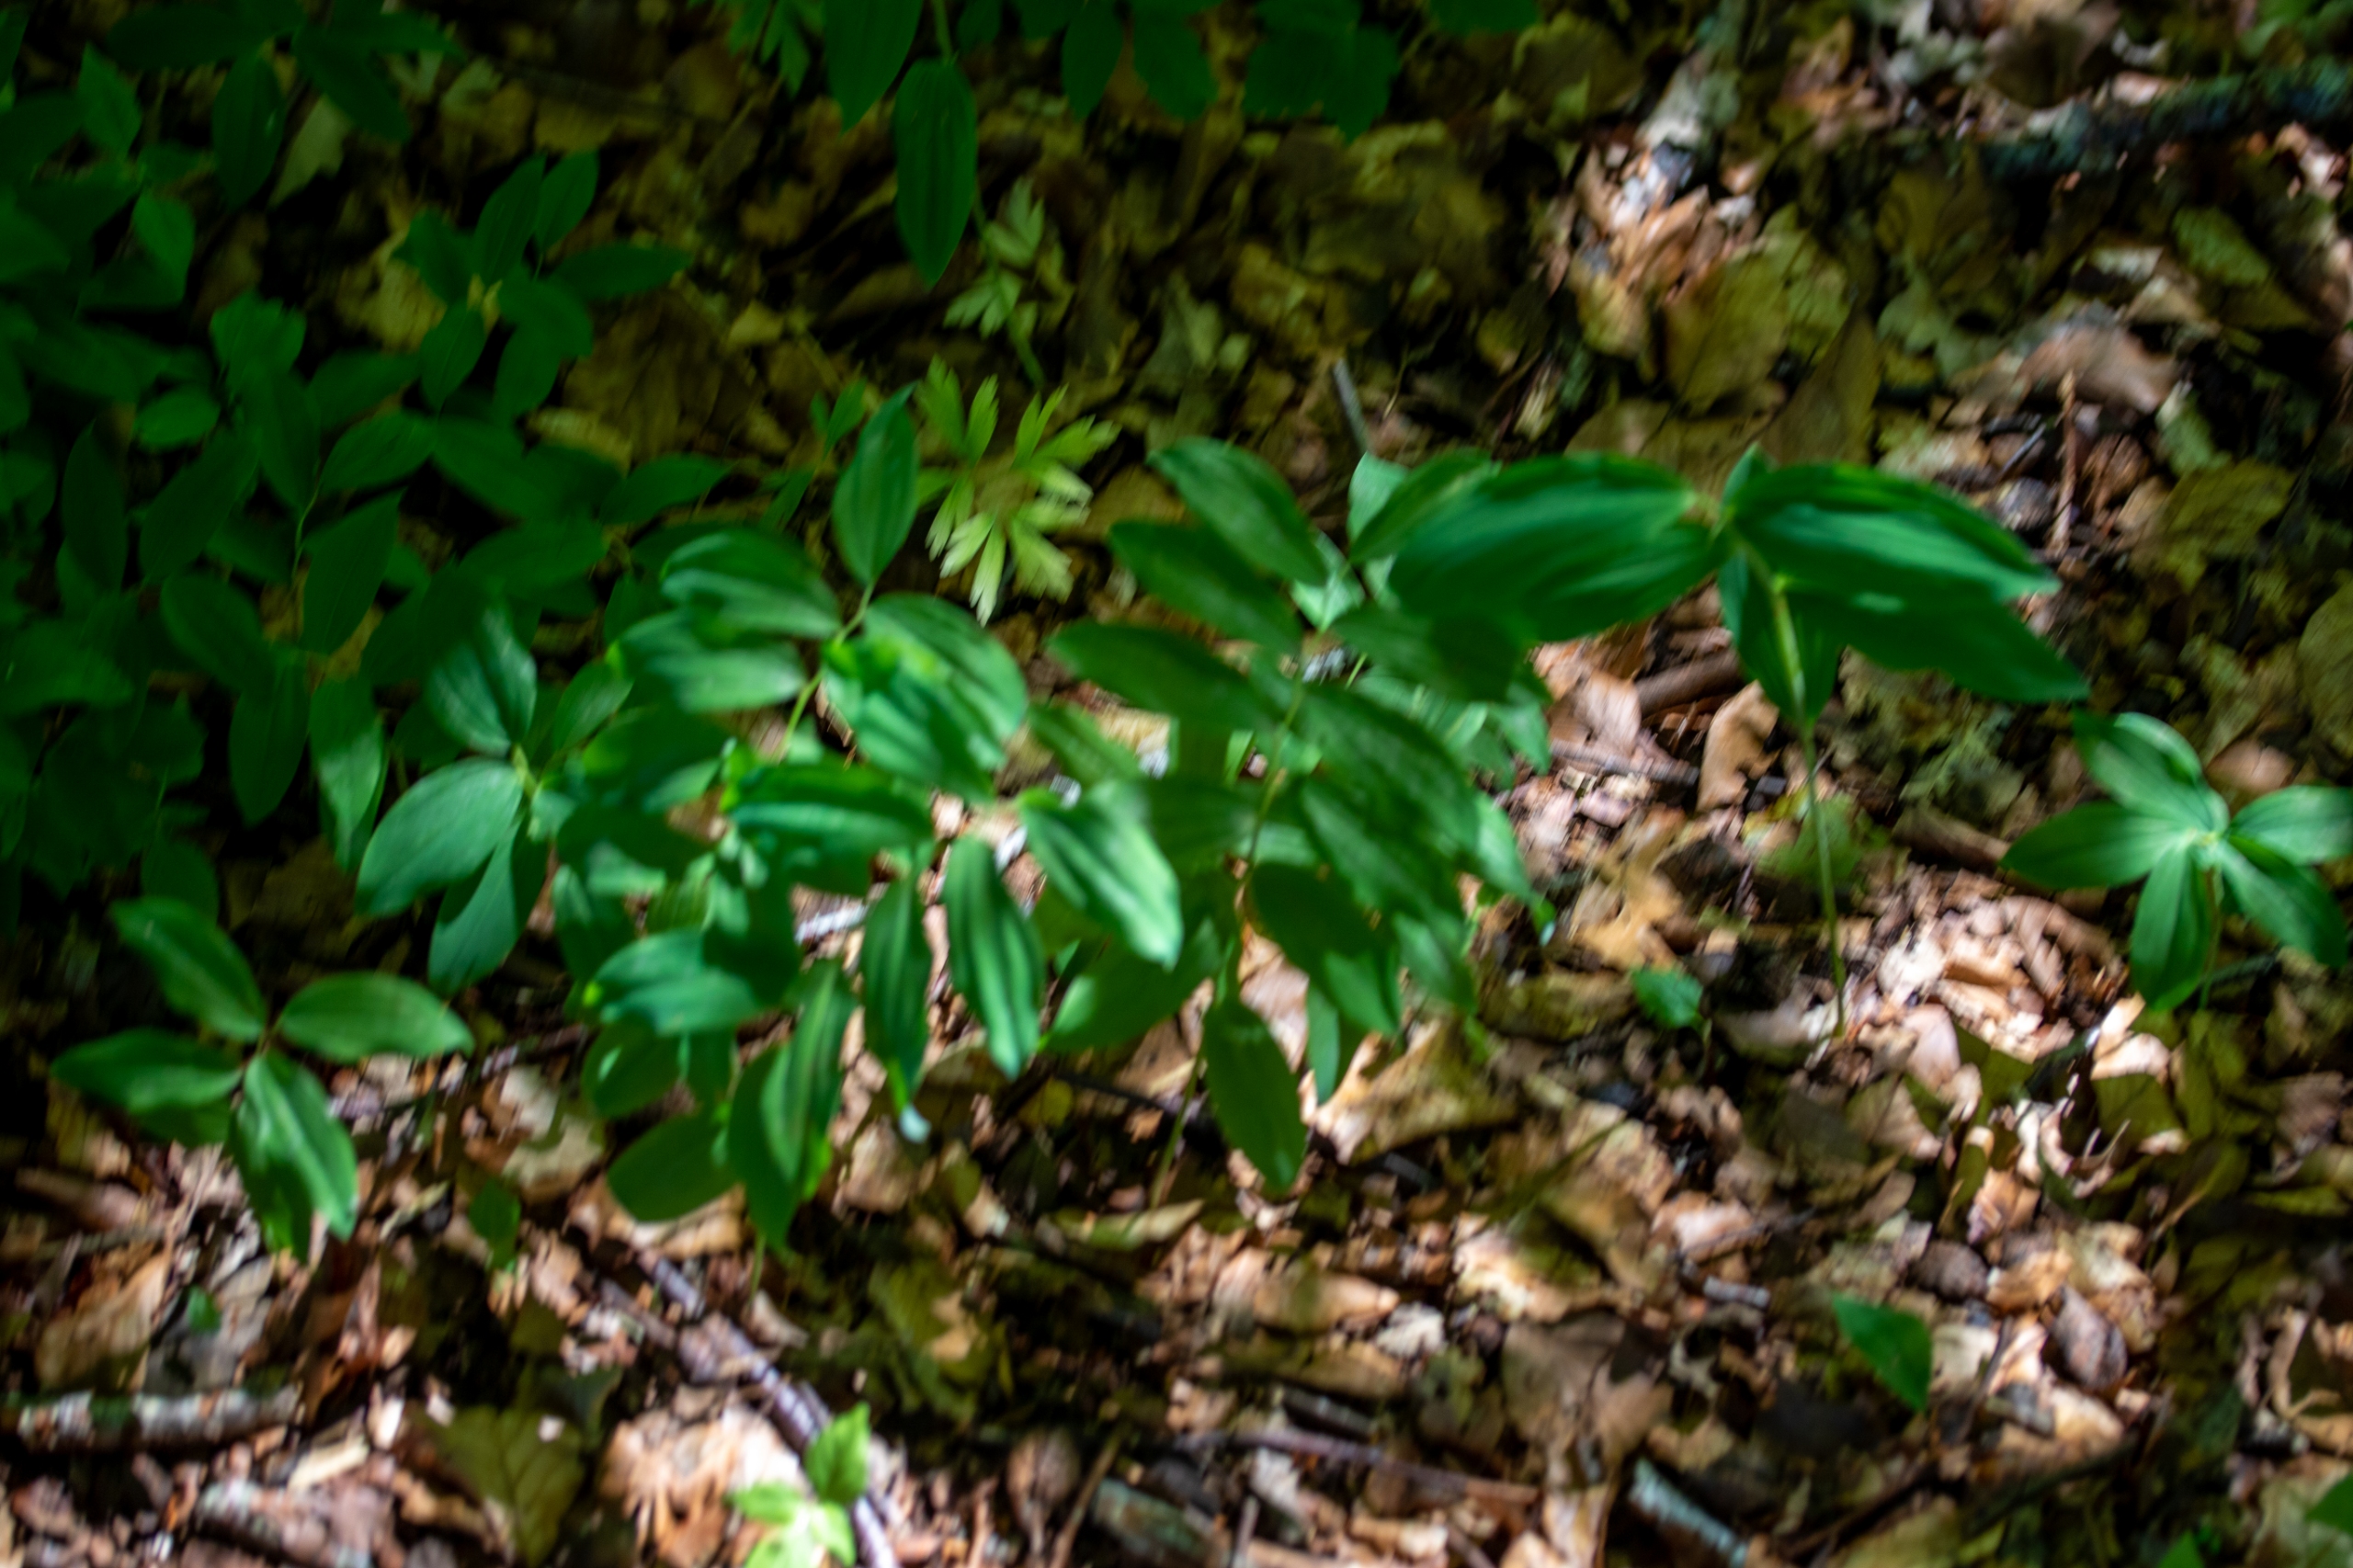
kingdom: Plantae
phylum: Tracheophyta
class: Liliopsida
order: Asparagales
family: Asparagaceae
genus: Polygonatum
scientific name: Polygonatum multiflorum
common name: Stor konval
